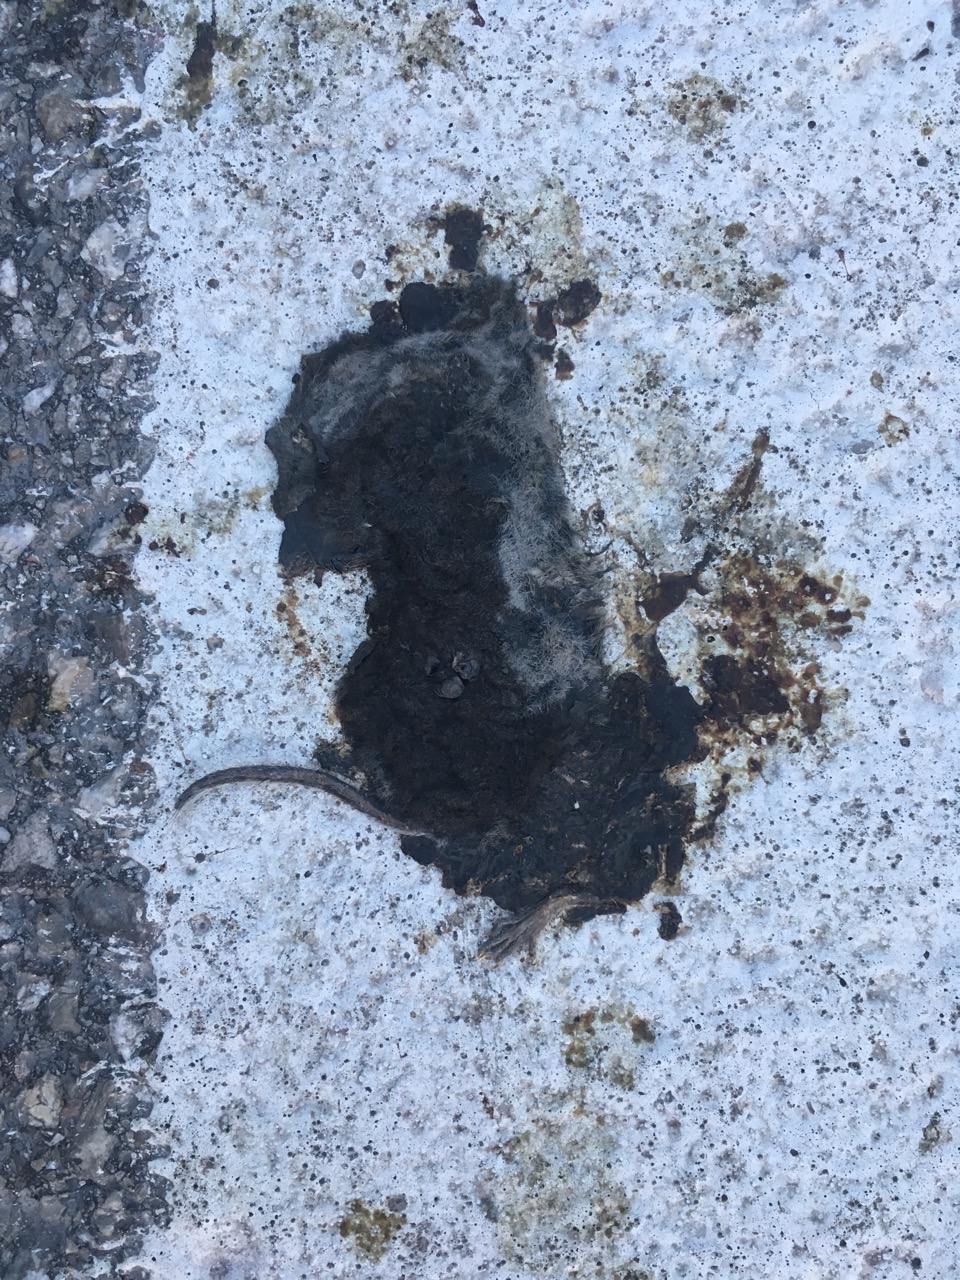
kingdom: Animalia
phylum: Chordata
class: Mammalia
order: Soricomorpha
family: Soricidae
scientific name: Soricidae
